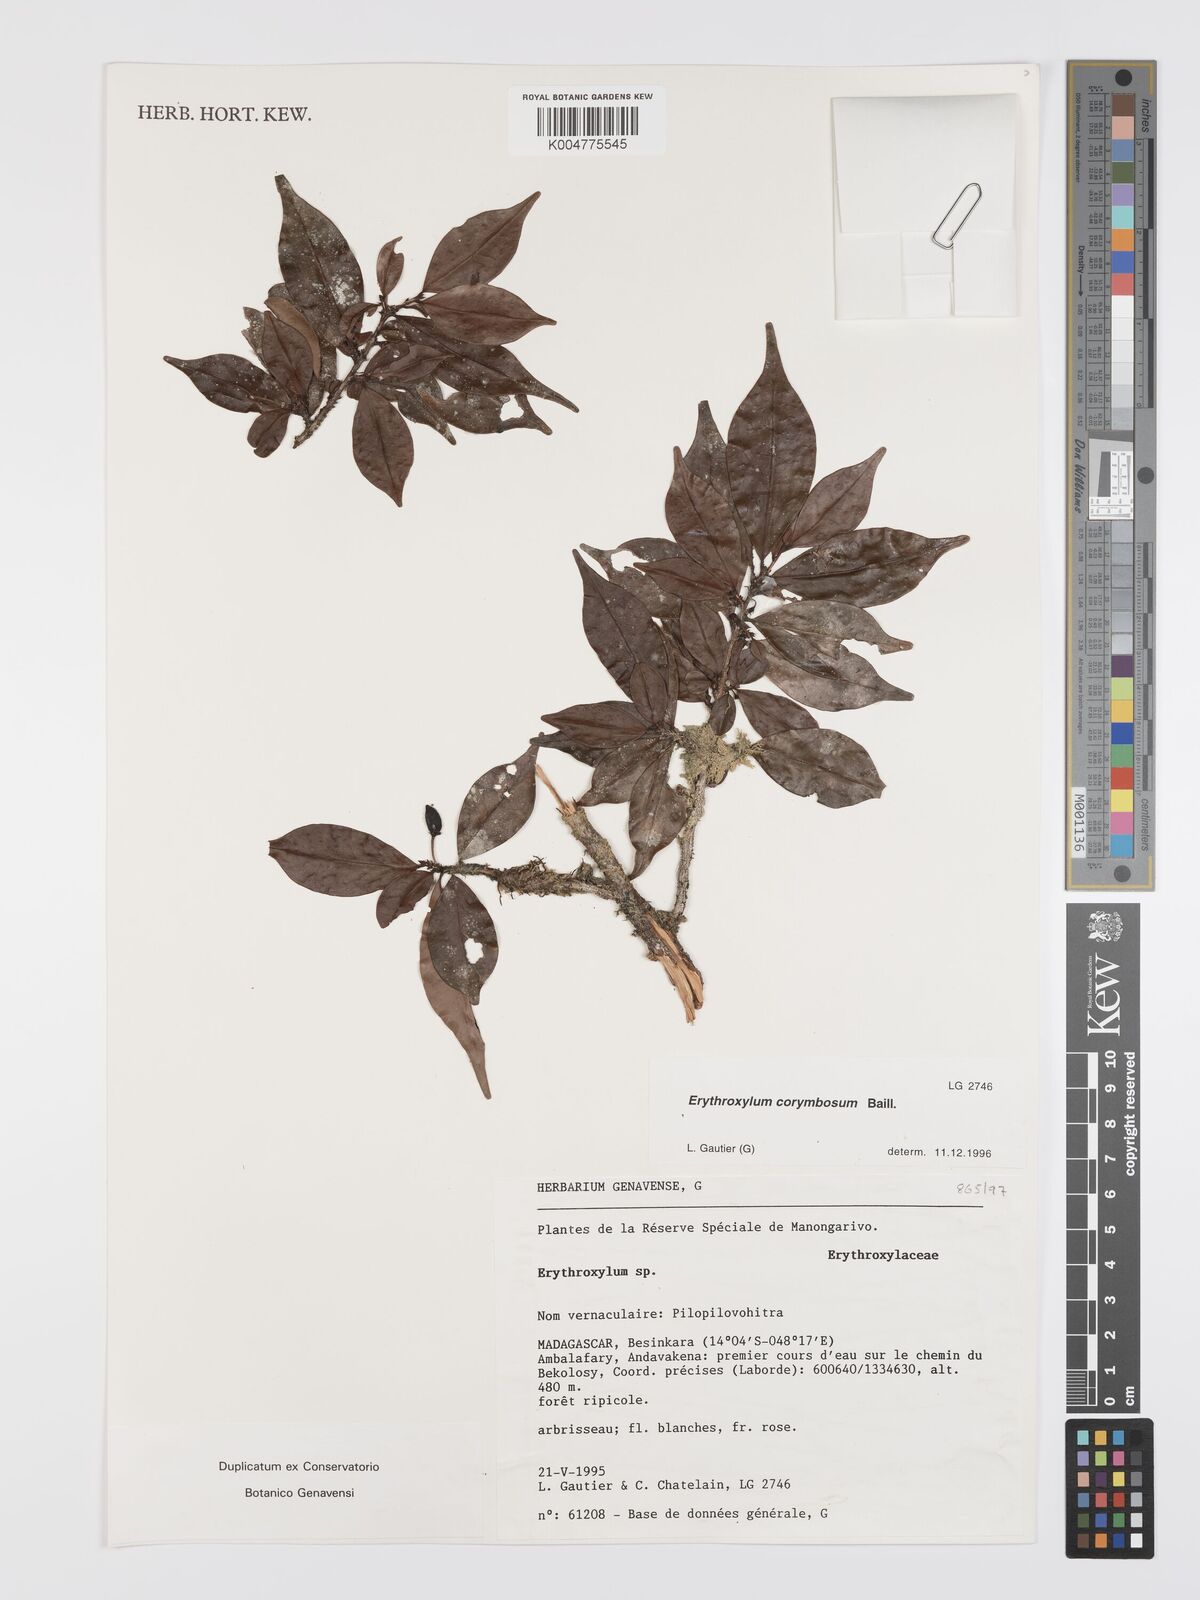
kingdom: Plantae
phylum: Tracheophyta
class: Magnoliopsida
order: Malpighiales
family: Erythroxylaceae
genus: Erythroxylum
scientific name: Erythroxylum corymbosum
